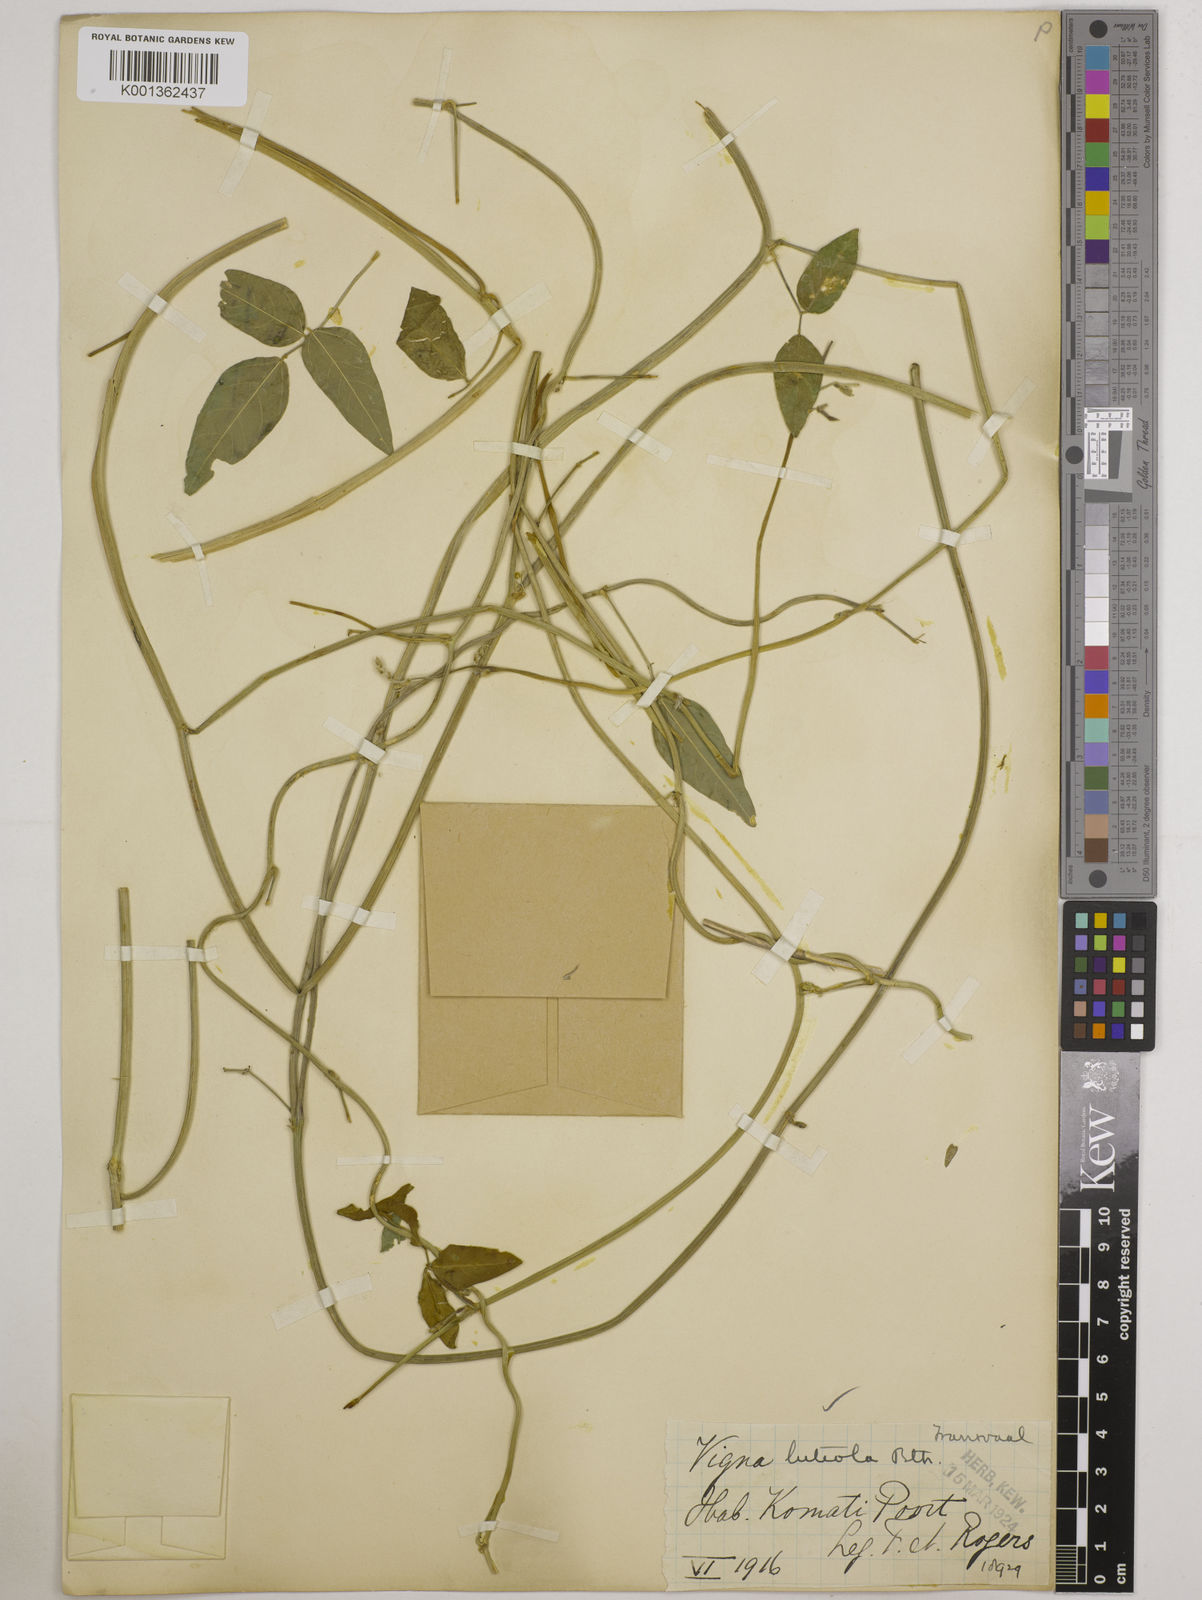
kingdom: Plantae
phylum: Tracheophyta
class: Magnoliopsida
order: Fabales
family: Fabaceae
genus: Vigna
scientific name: Vigna luteola
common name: Hairypod cowpea
